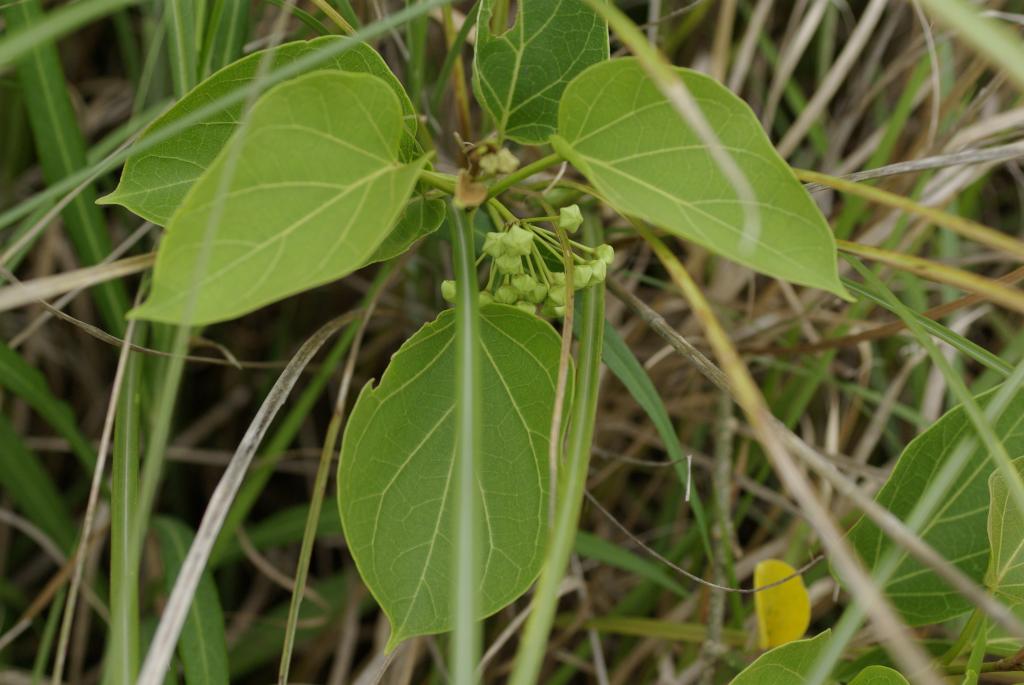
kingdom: Plantae
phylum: Tracheophyta
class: Magnoliopsida
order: Gentianales
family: Apocynaceae
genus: Stephanotis
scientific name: Stephanotis volubilis
